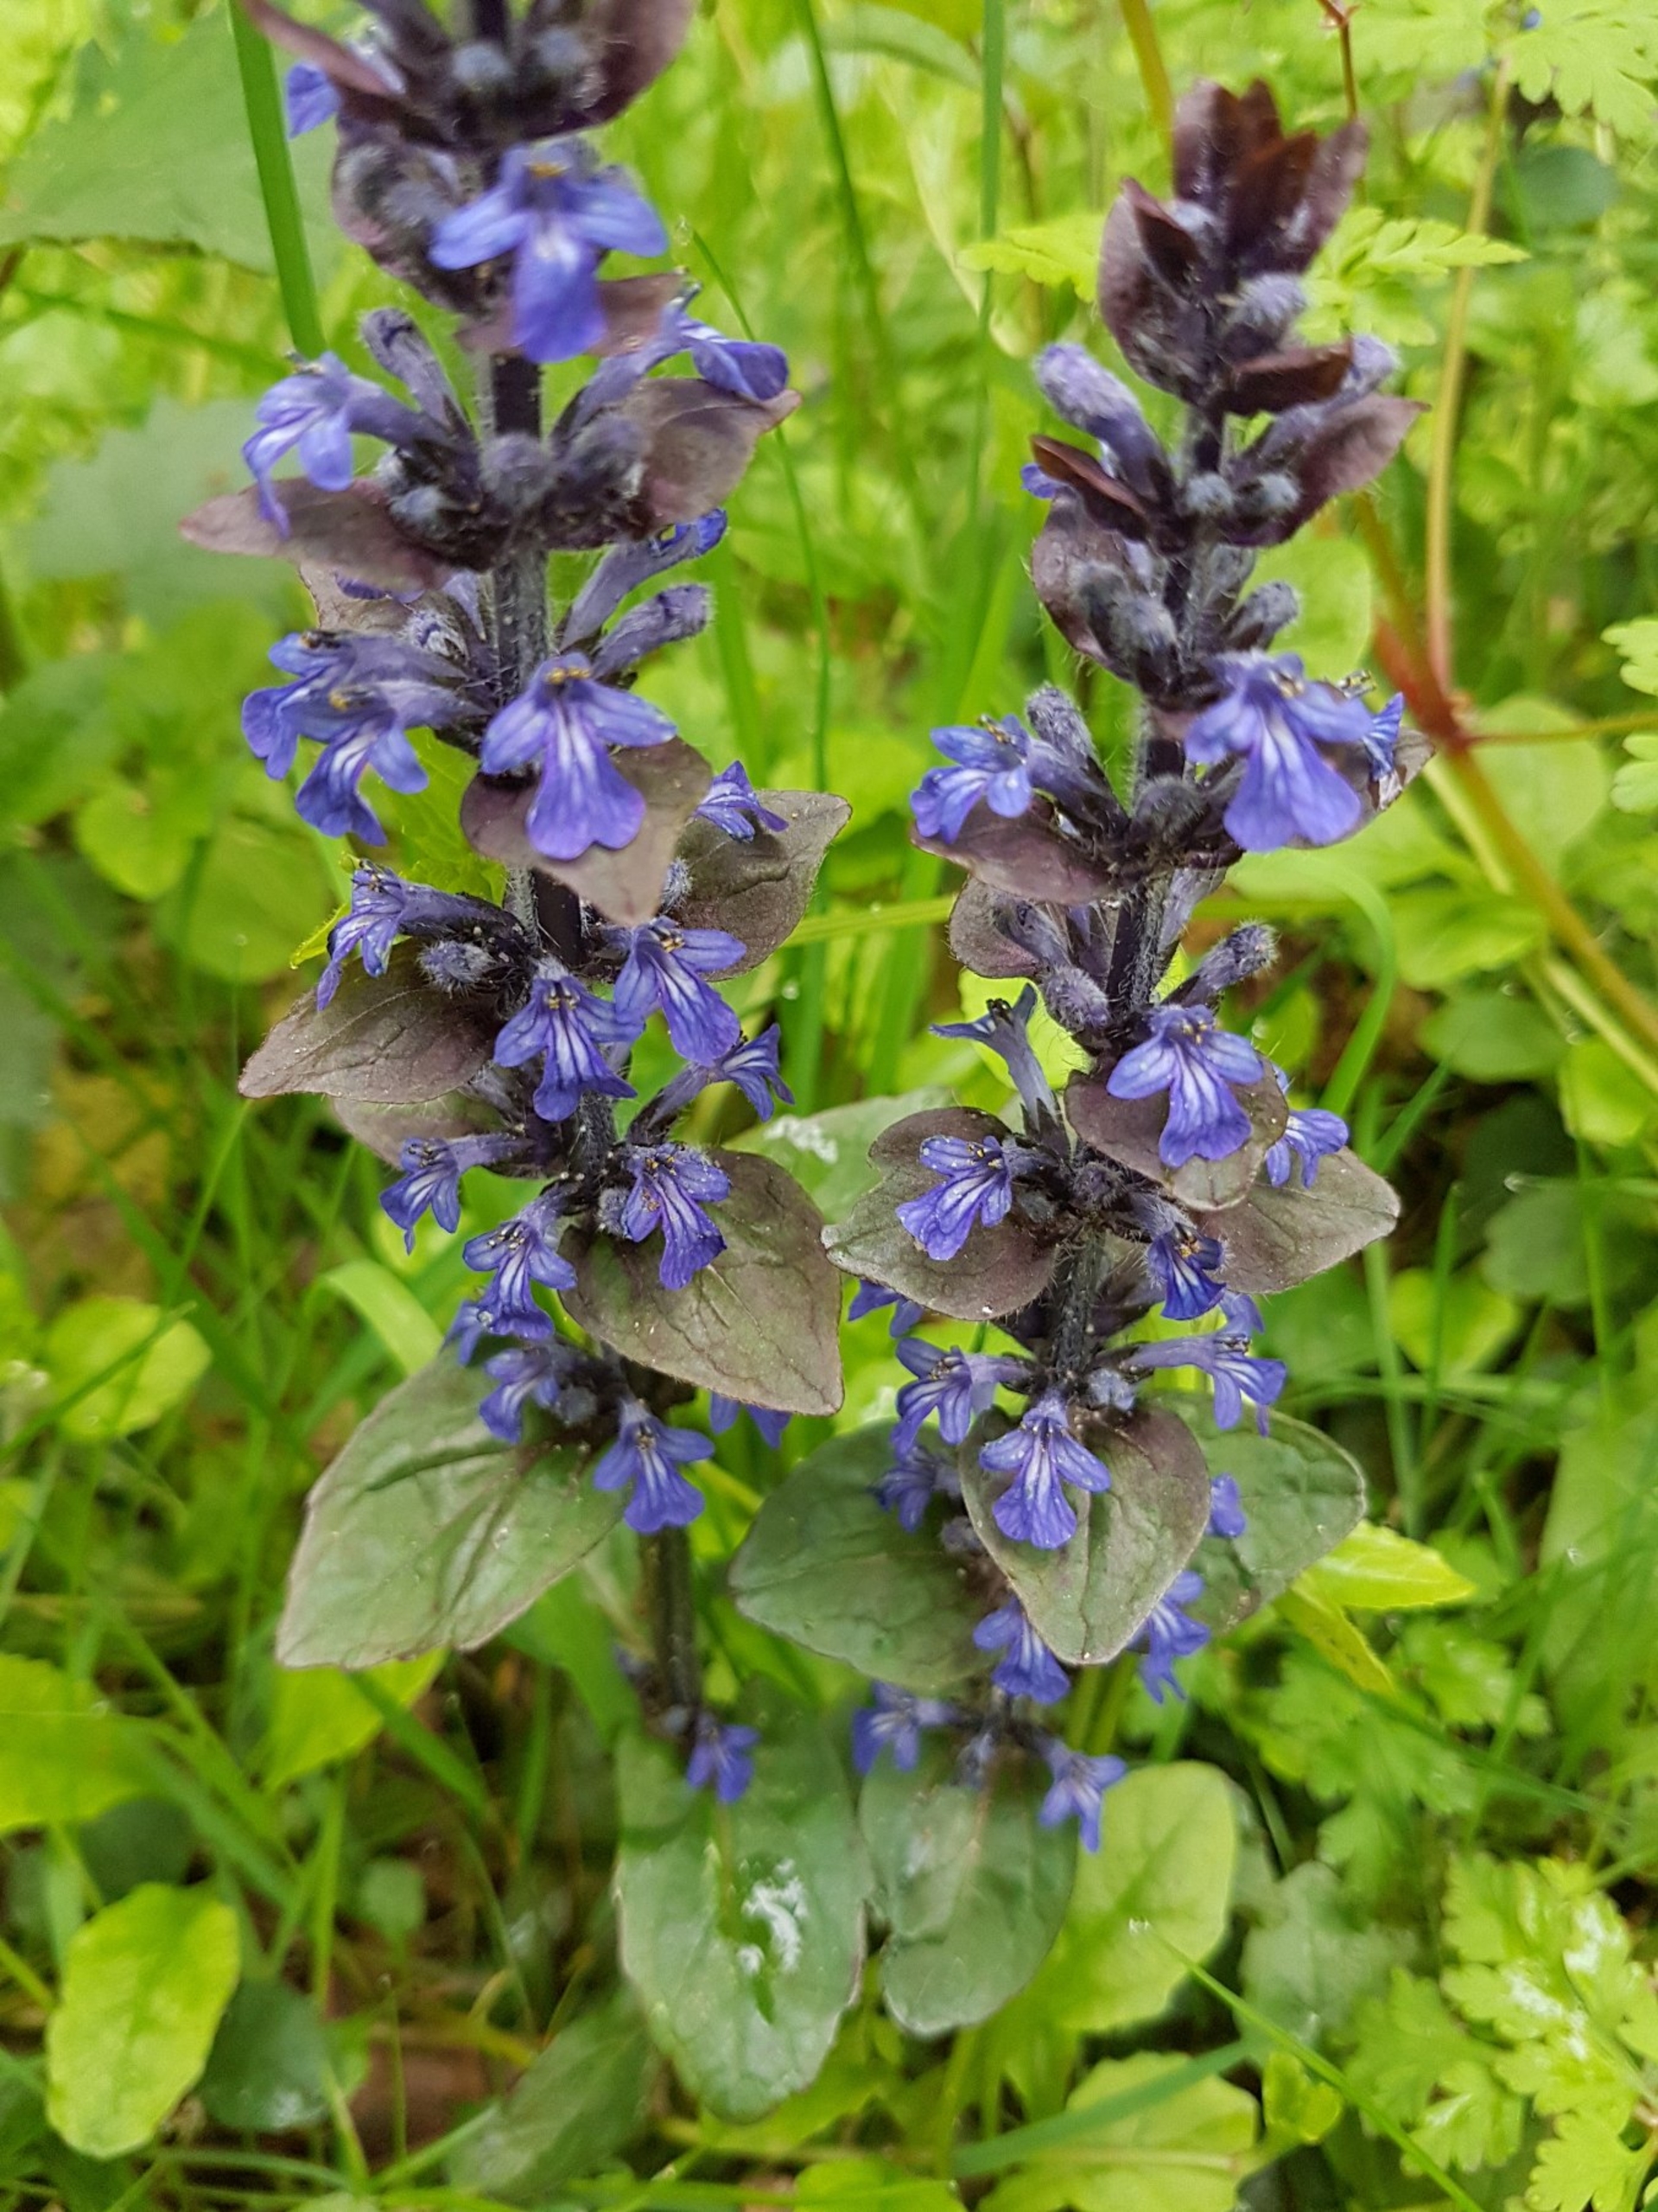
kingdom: Plantae
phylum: Tracheophyta
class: Magnoliopsida
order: Lamiales
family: Lamiaceae
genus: Ajuga
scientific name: Ajuga reptans
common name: Krybende læbeløs
